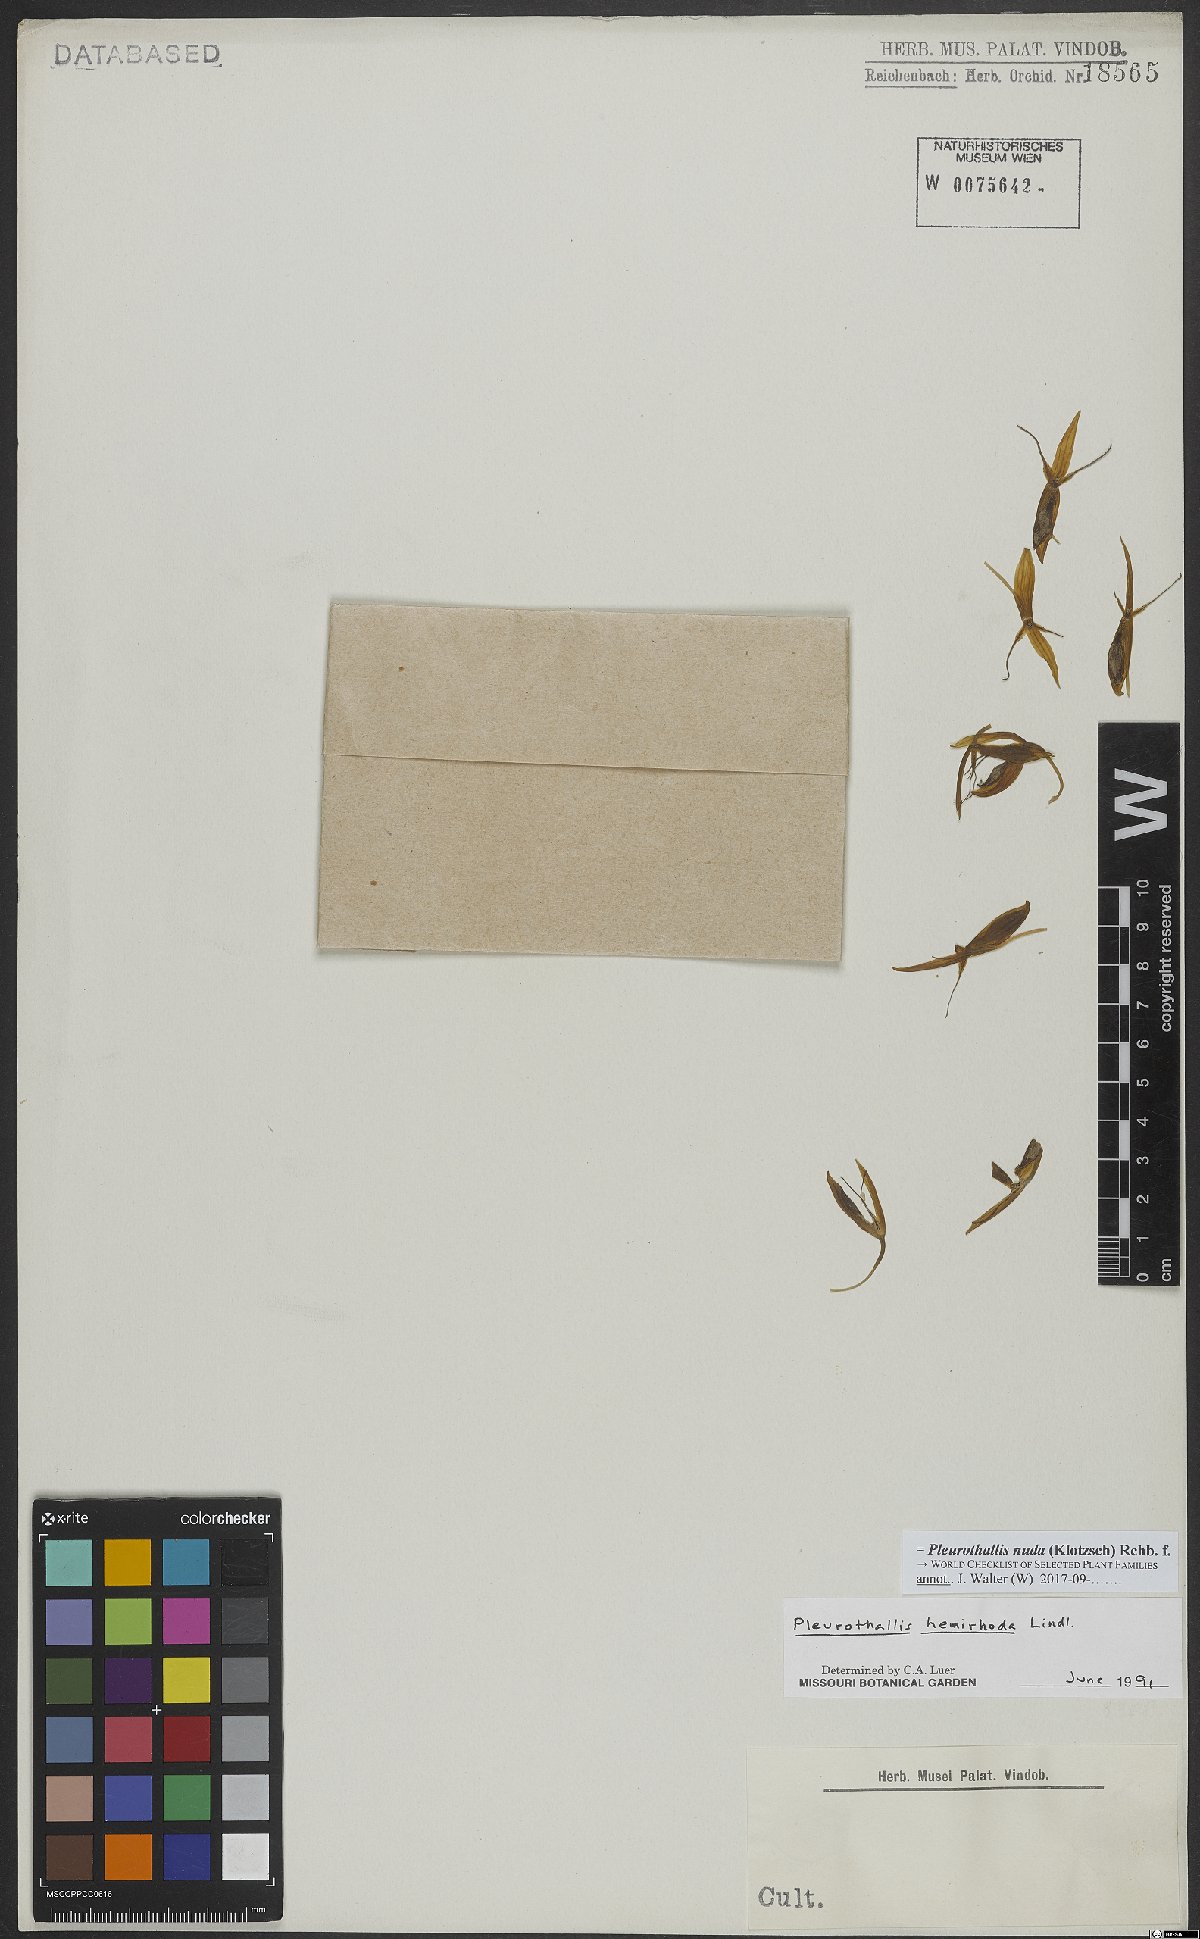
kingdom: Plantae
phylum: Tracheophyta
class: Liliopsida
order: Asparagales
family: Orchidaceae
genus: Pleurothallis
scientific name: Pleurothallis nuda
